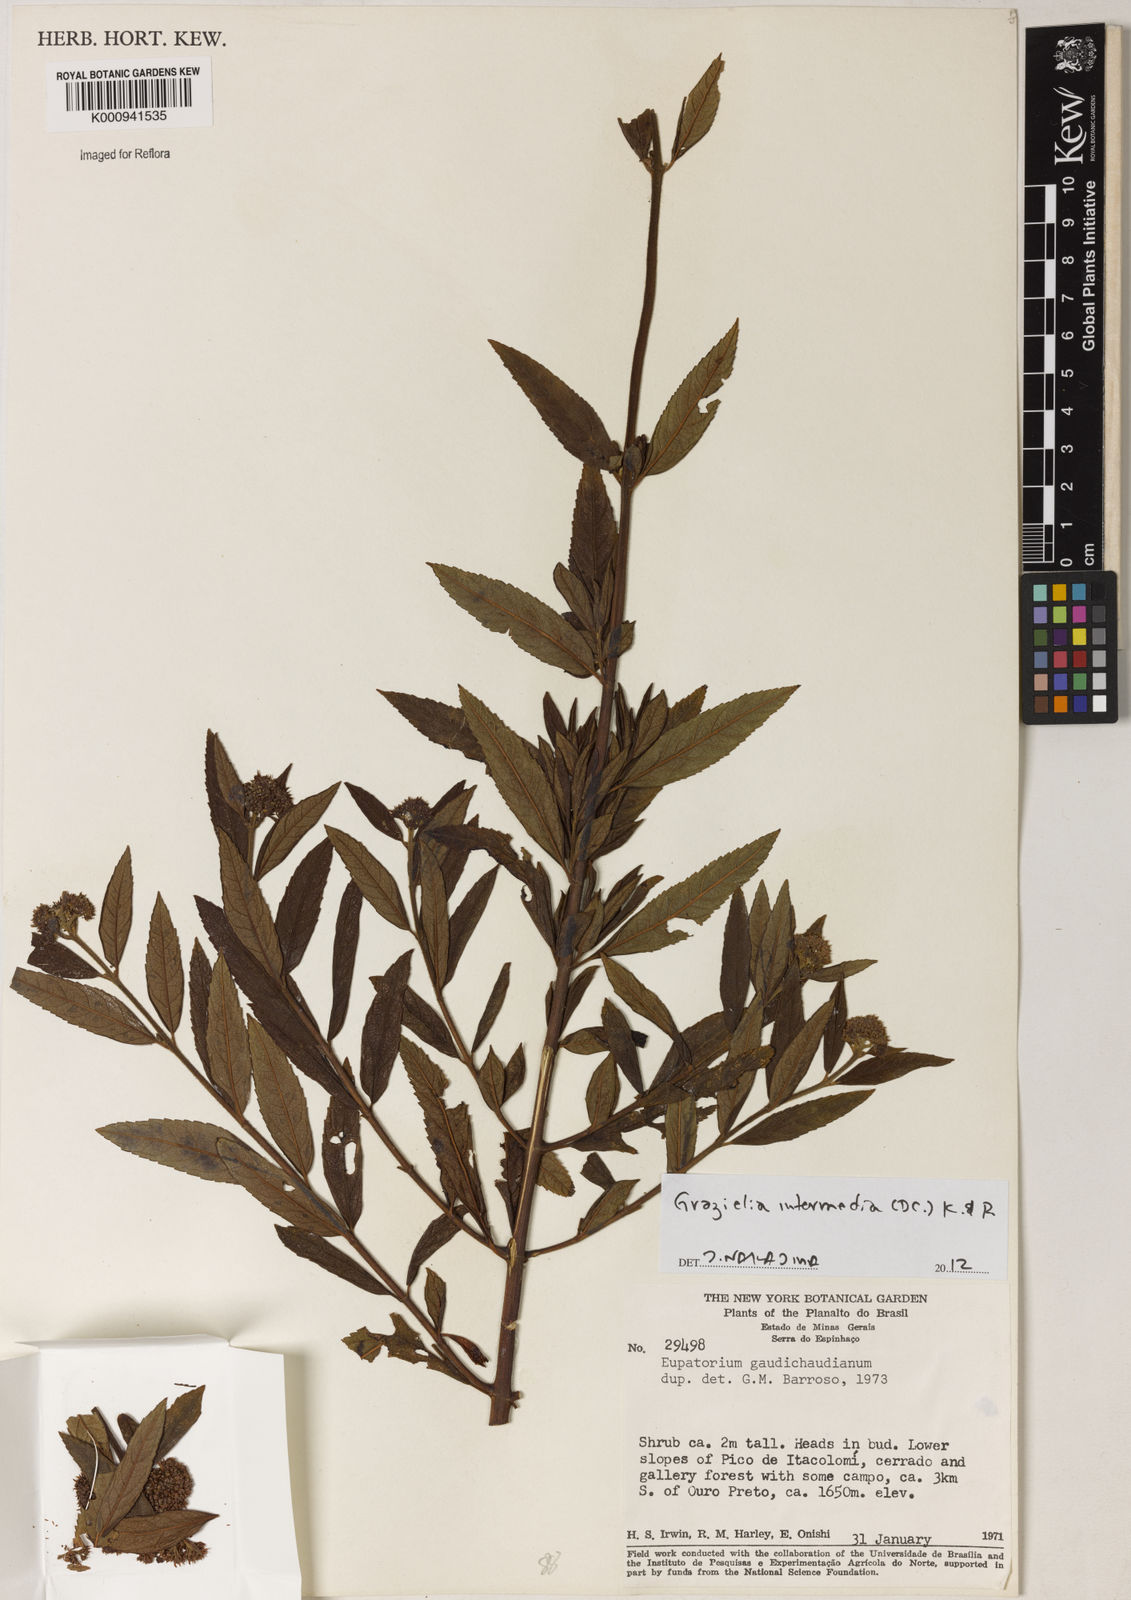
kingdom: Plantae
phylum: Tracheophyta
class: Magnoliopsida
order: Asterales
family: Asteraceae
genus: Grazielia
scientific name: Grazielia intermedia
